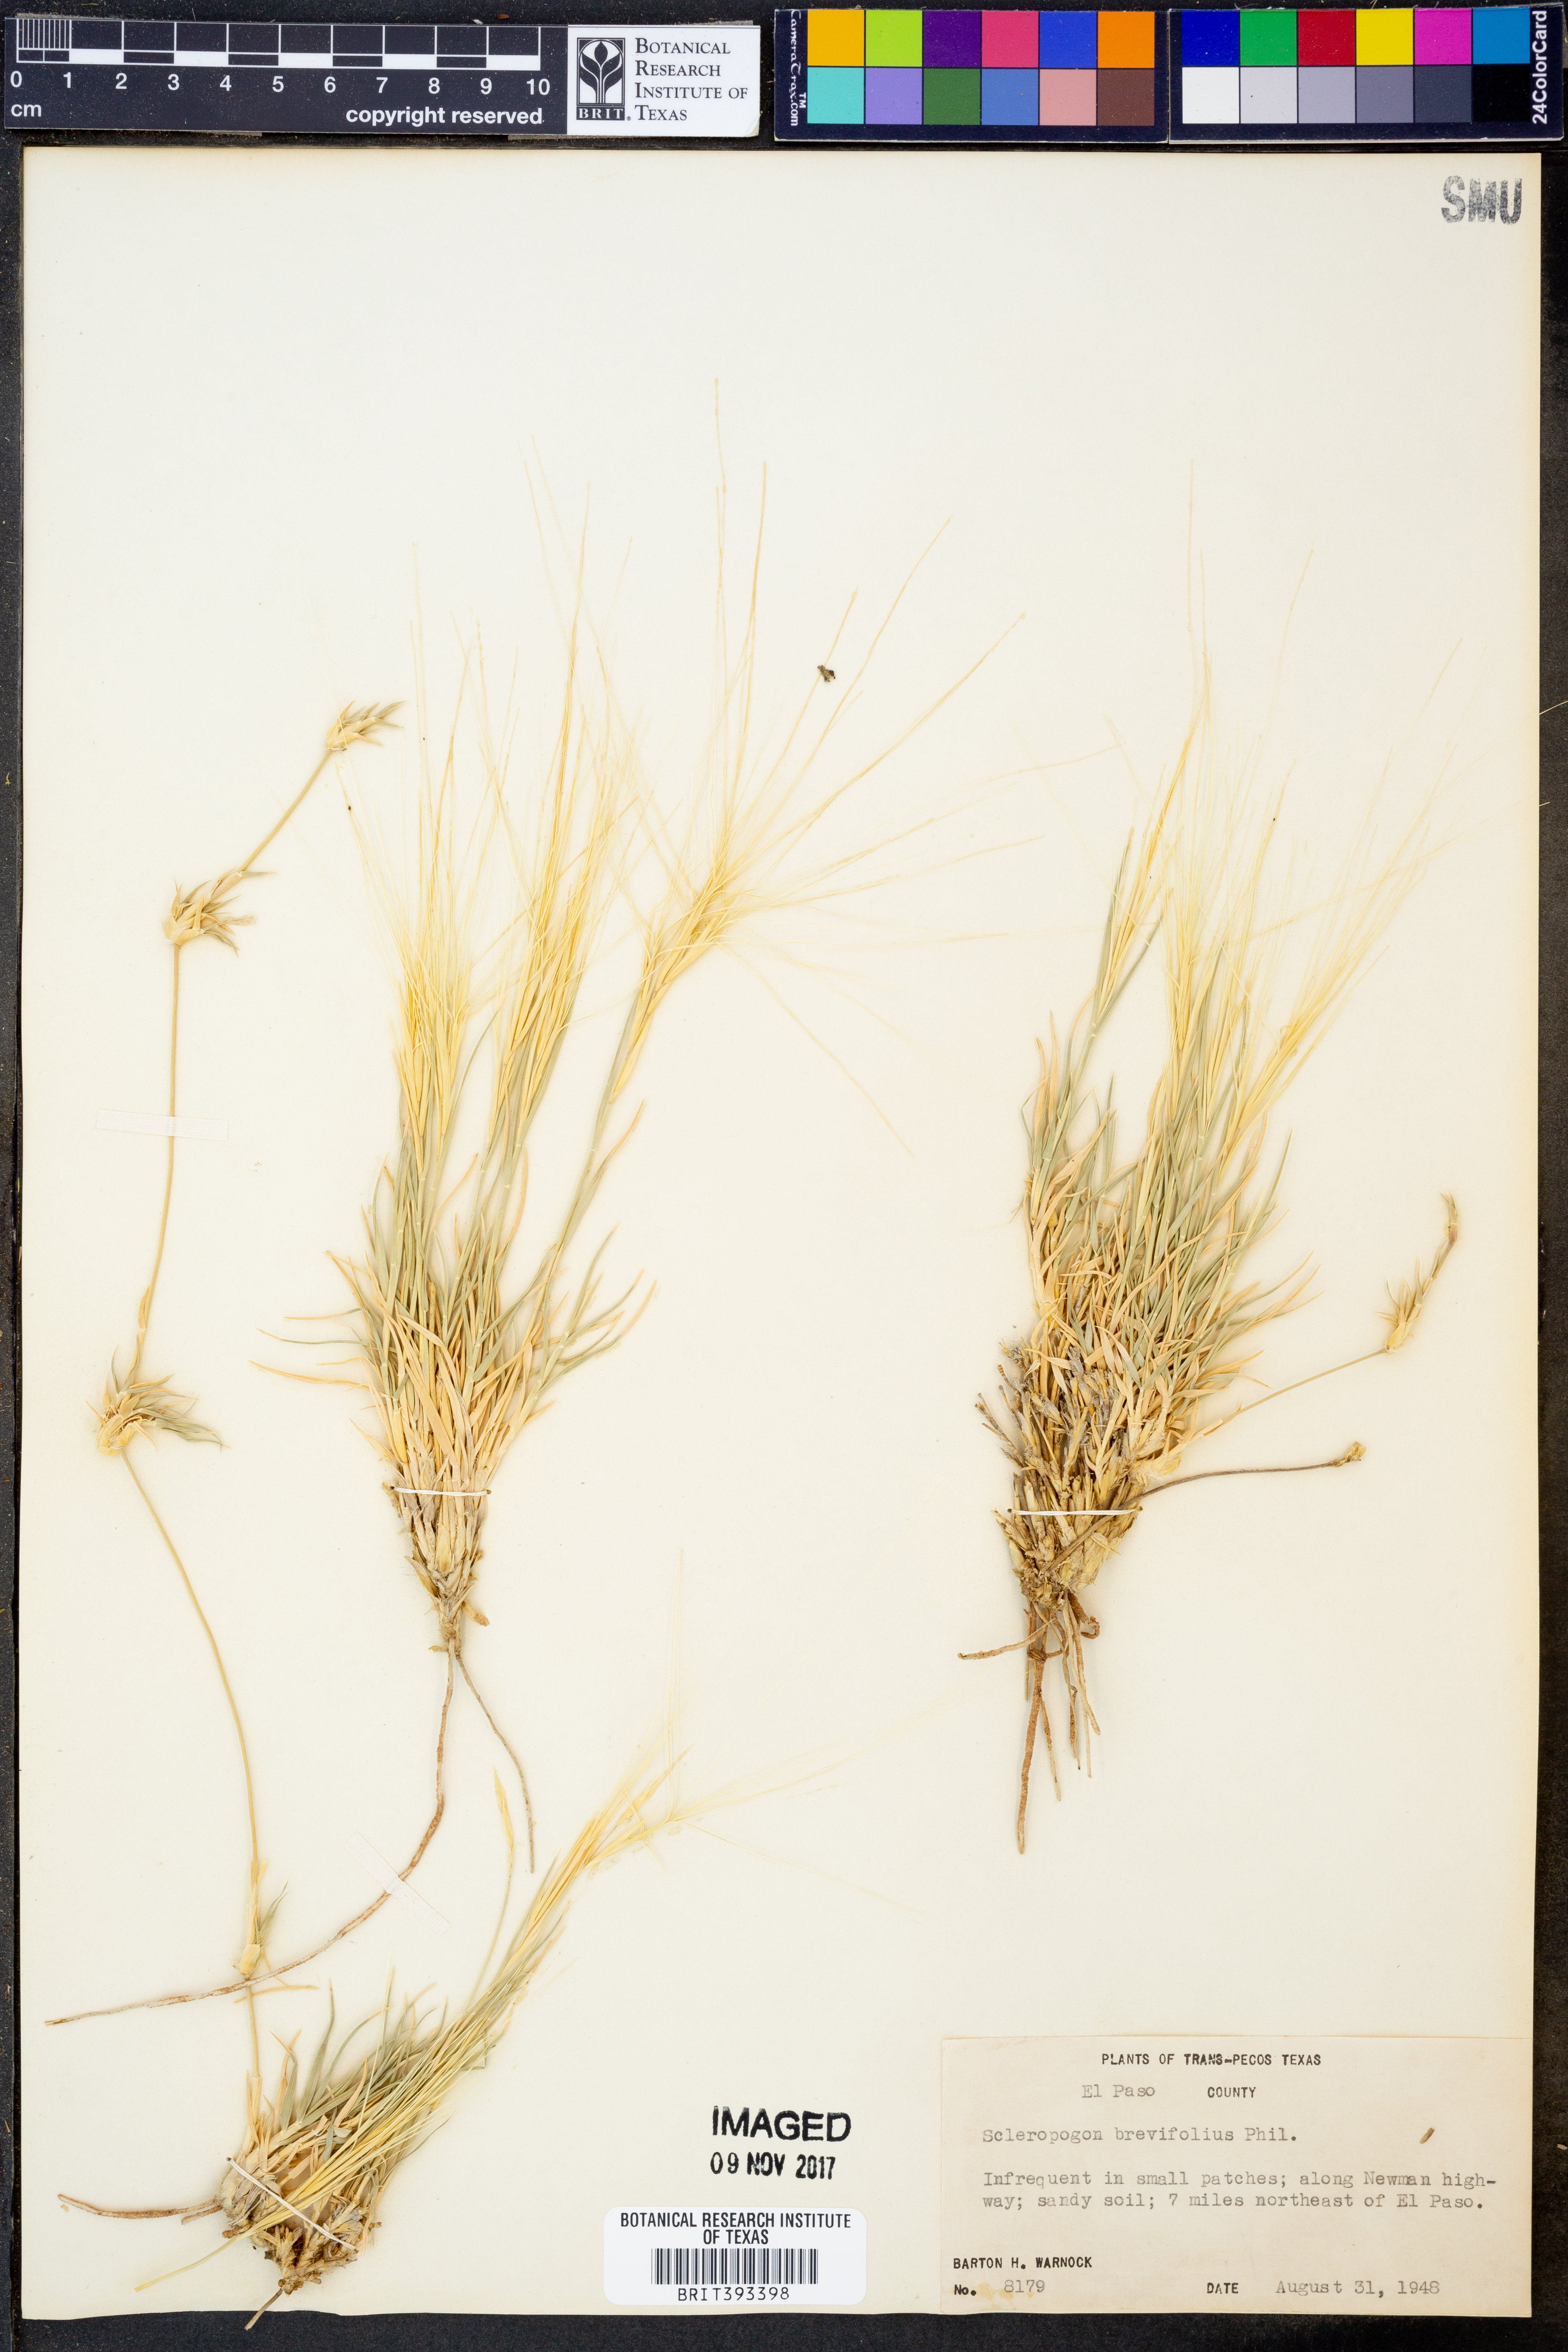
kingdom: Plantae
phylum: Tracheophyta
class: Liliopsida
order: Poales
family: Poaceae
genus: Scleropogon
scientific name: Scleropogon brevifolius
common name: Burro grass
